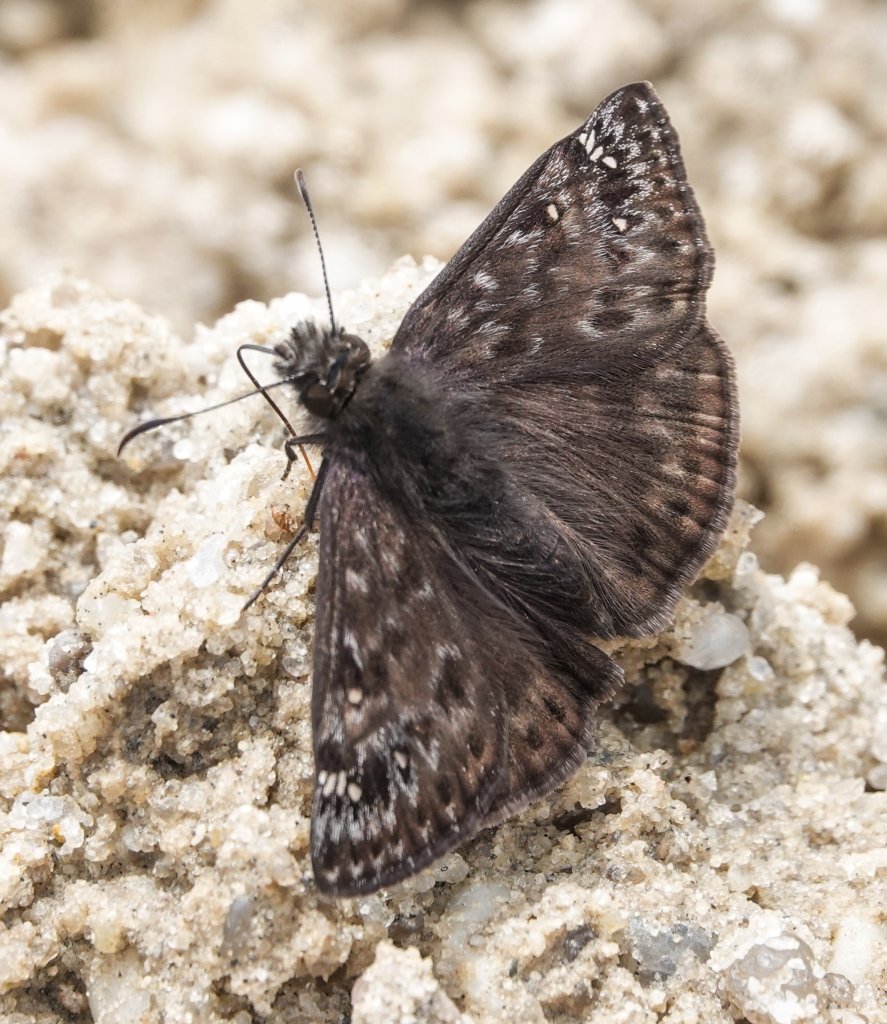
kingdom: Animalia
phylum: Arthropoda
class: Insecta
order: Lepidoptera
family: Hesperiidae
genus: Gesta
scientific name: Gesta
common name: Juvenal's Duskywing
